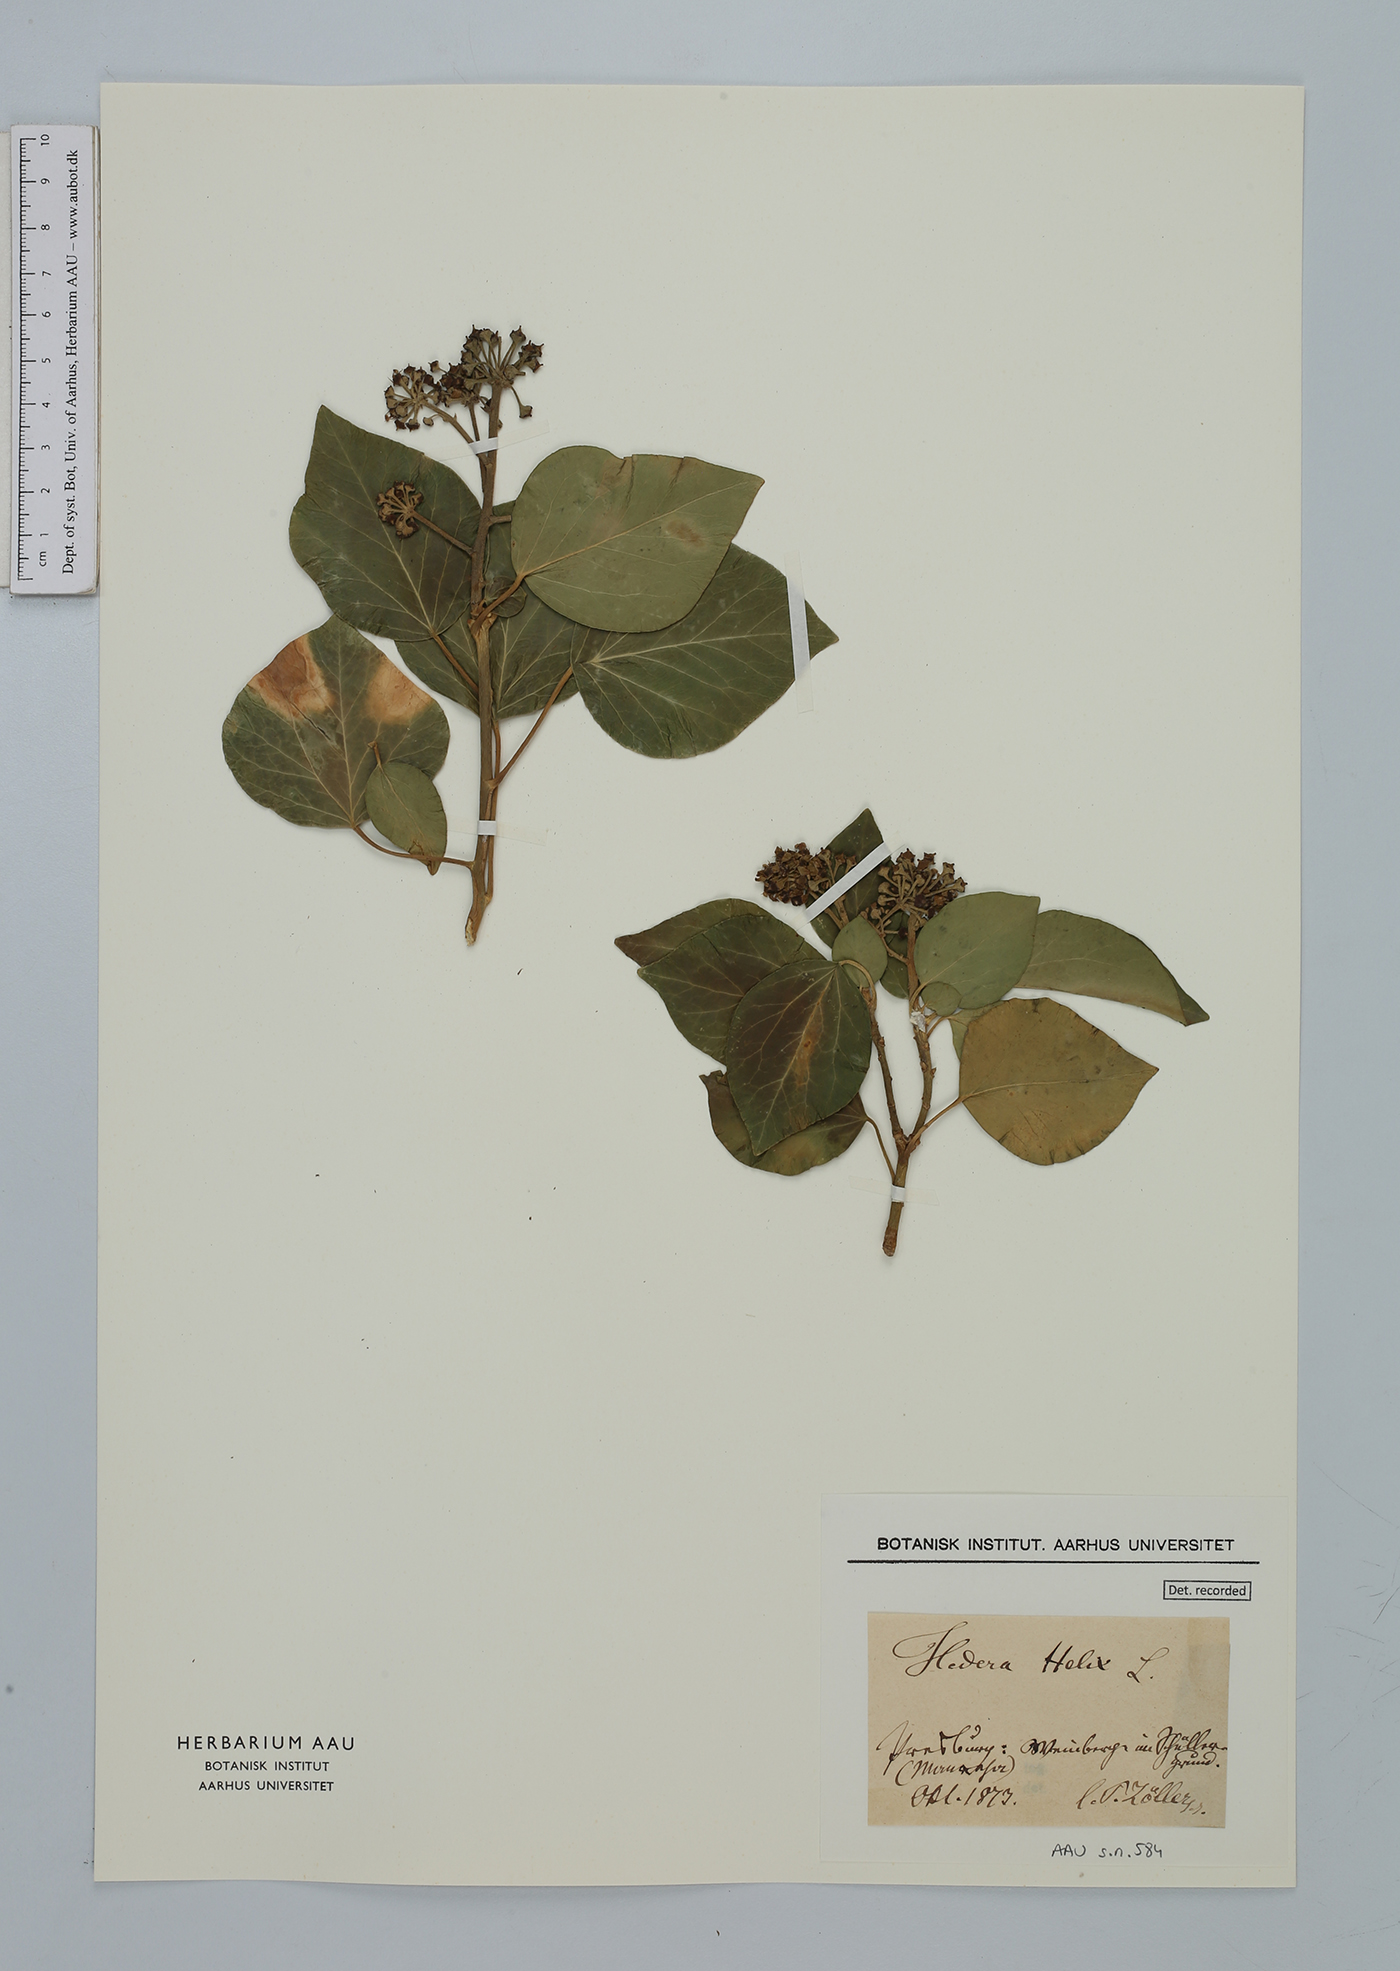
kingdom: Plantae
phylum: Tracheophyta
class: Magnoliopsida
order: Apiales
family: Araliaceae
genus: Hedera
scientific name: Hedera helix
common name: Ivy
